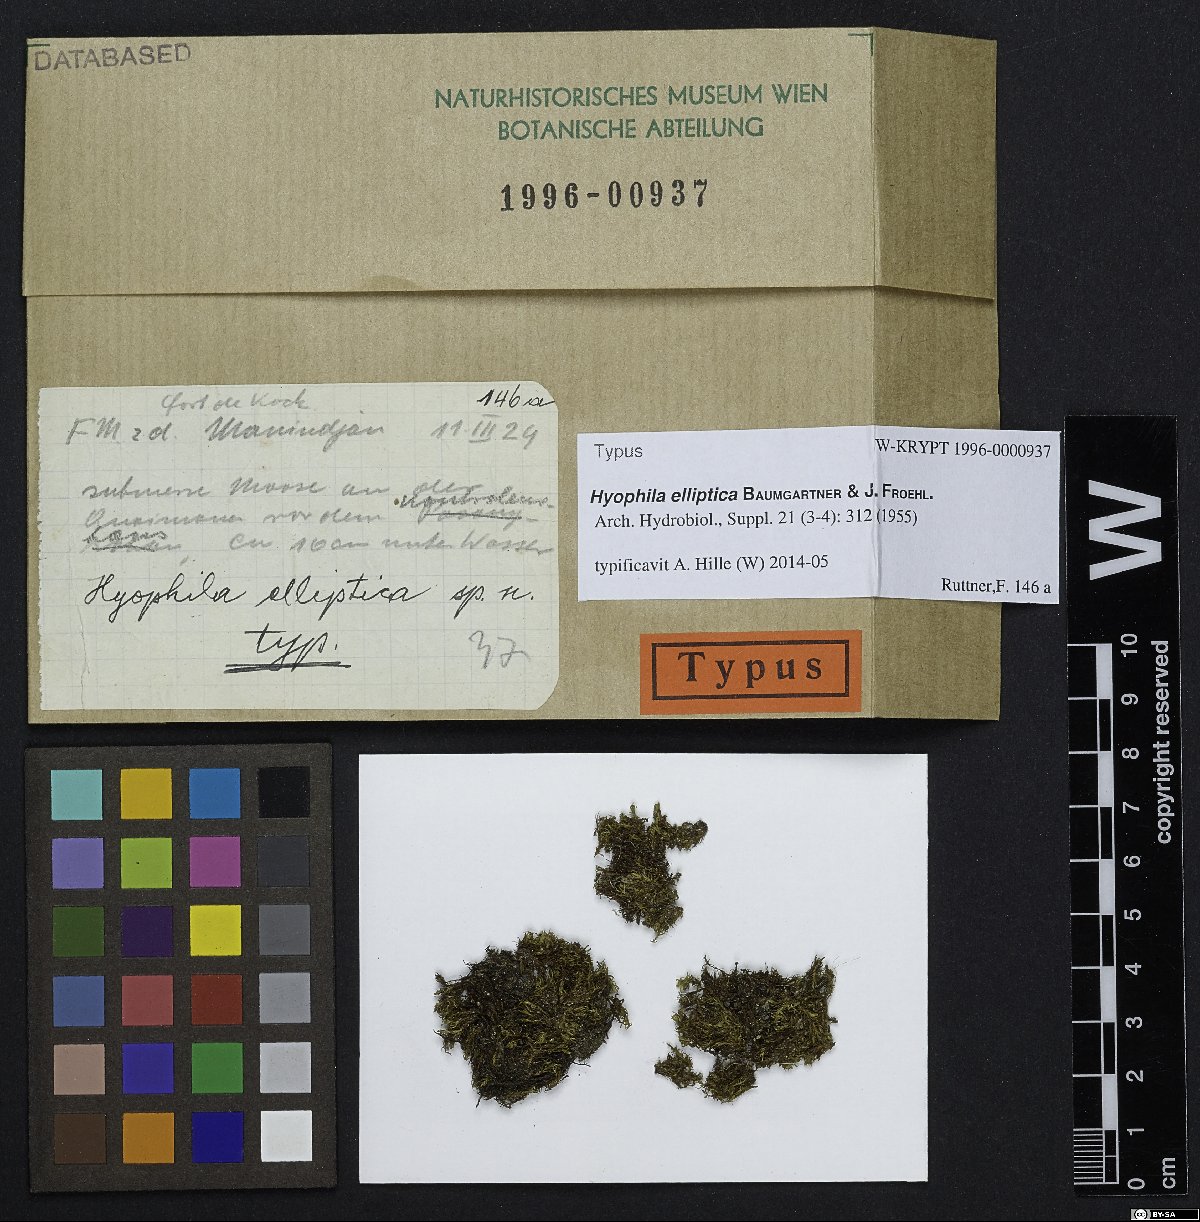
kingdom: Plantae
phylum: Bryophyta
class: Bryopsida
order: Pottiales
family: Pottiaceae
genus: Hyophila
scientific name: Hyophila elliptica
